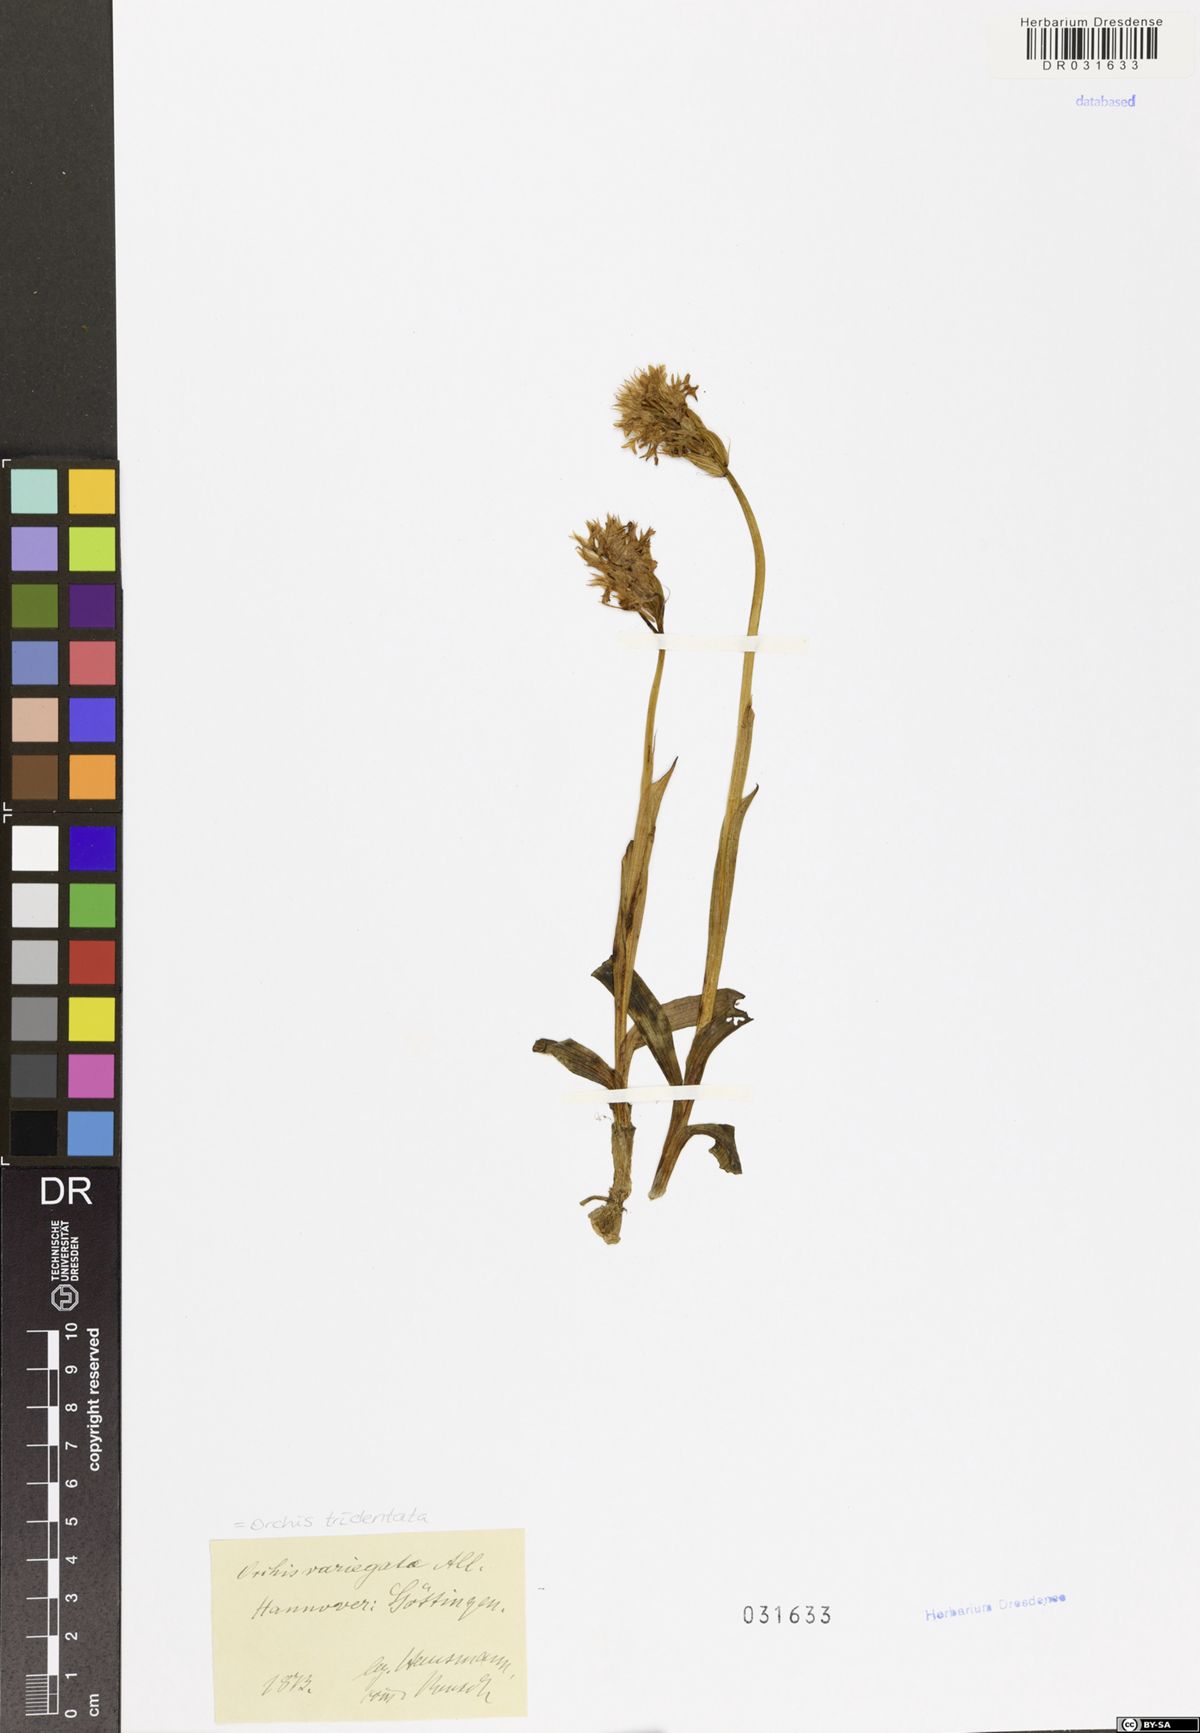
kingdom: Plantae
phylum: Tracheophyta
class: Liliopsida
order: Asparagales
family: Orchidaceae
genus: Neotinea
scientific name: Neotinea tridentata
